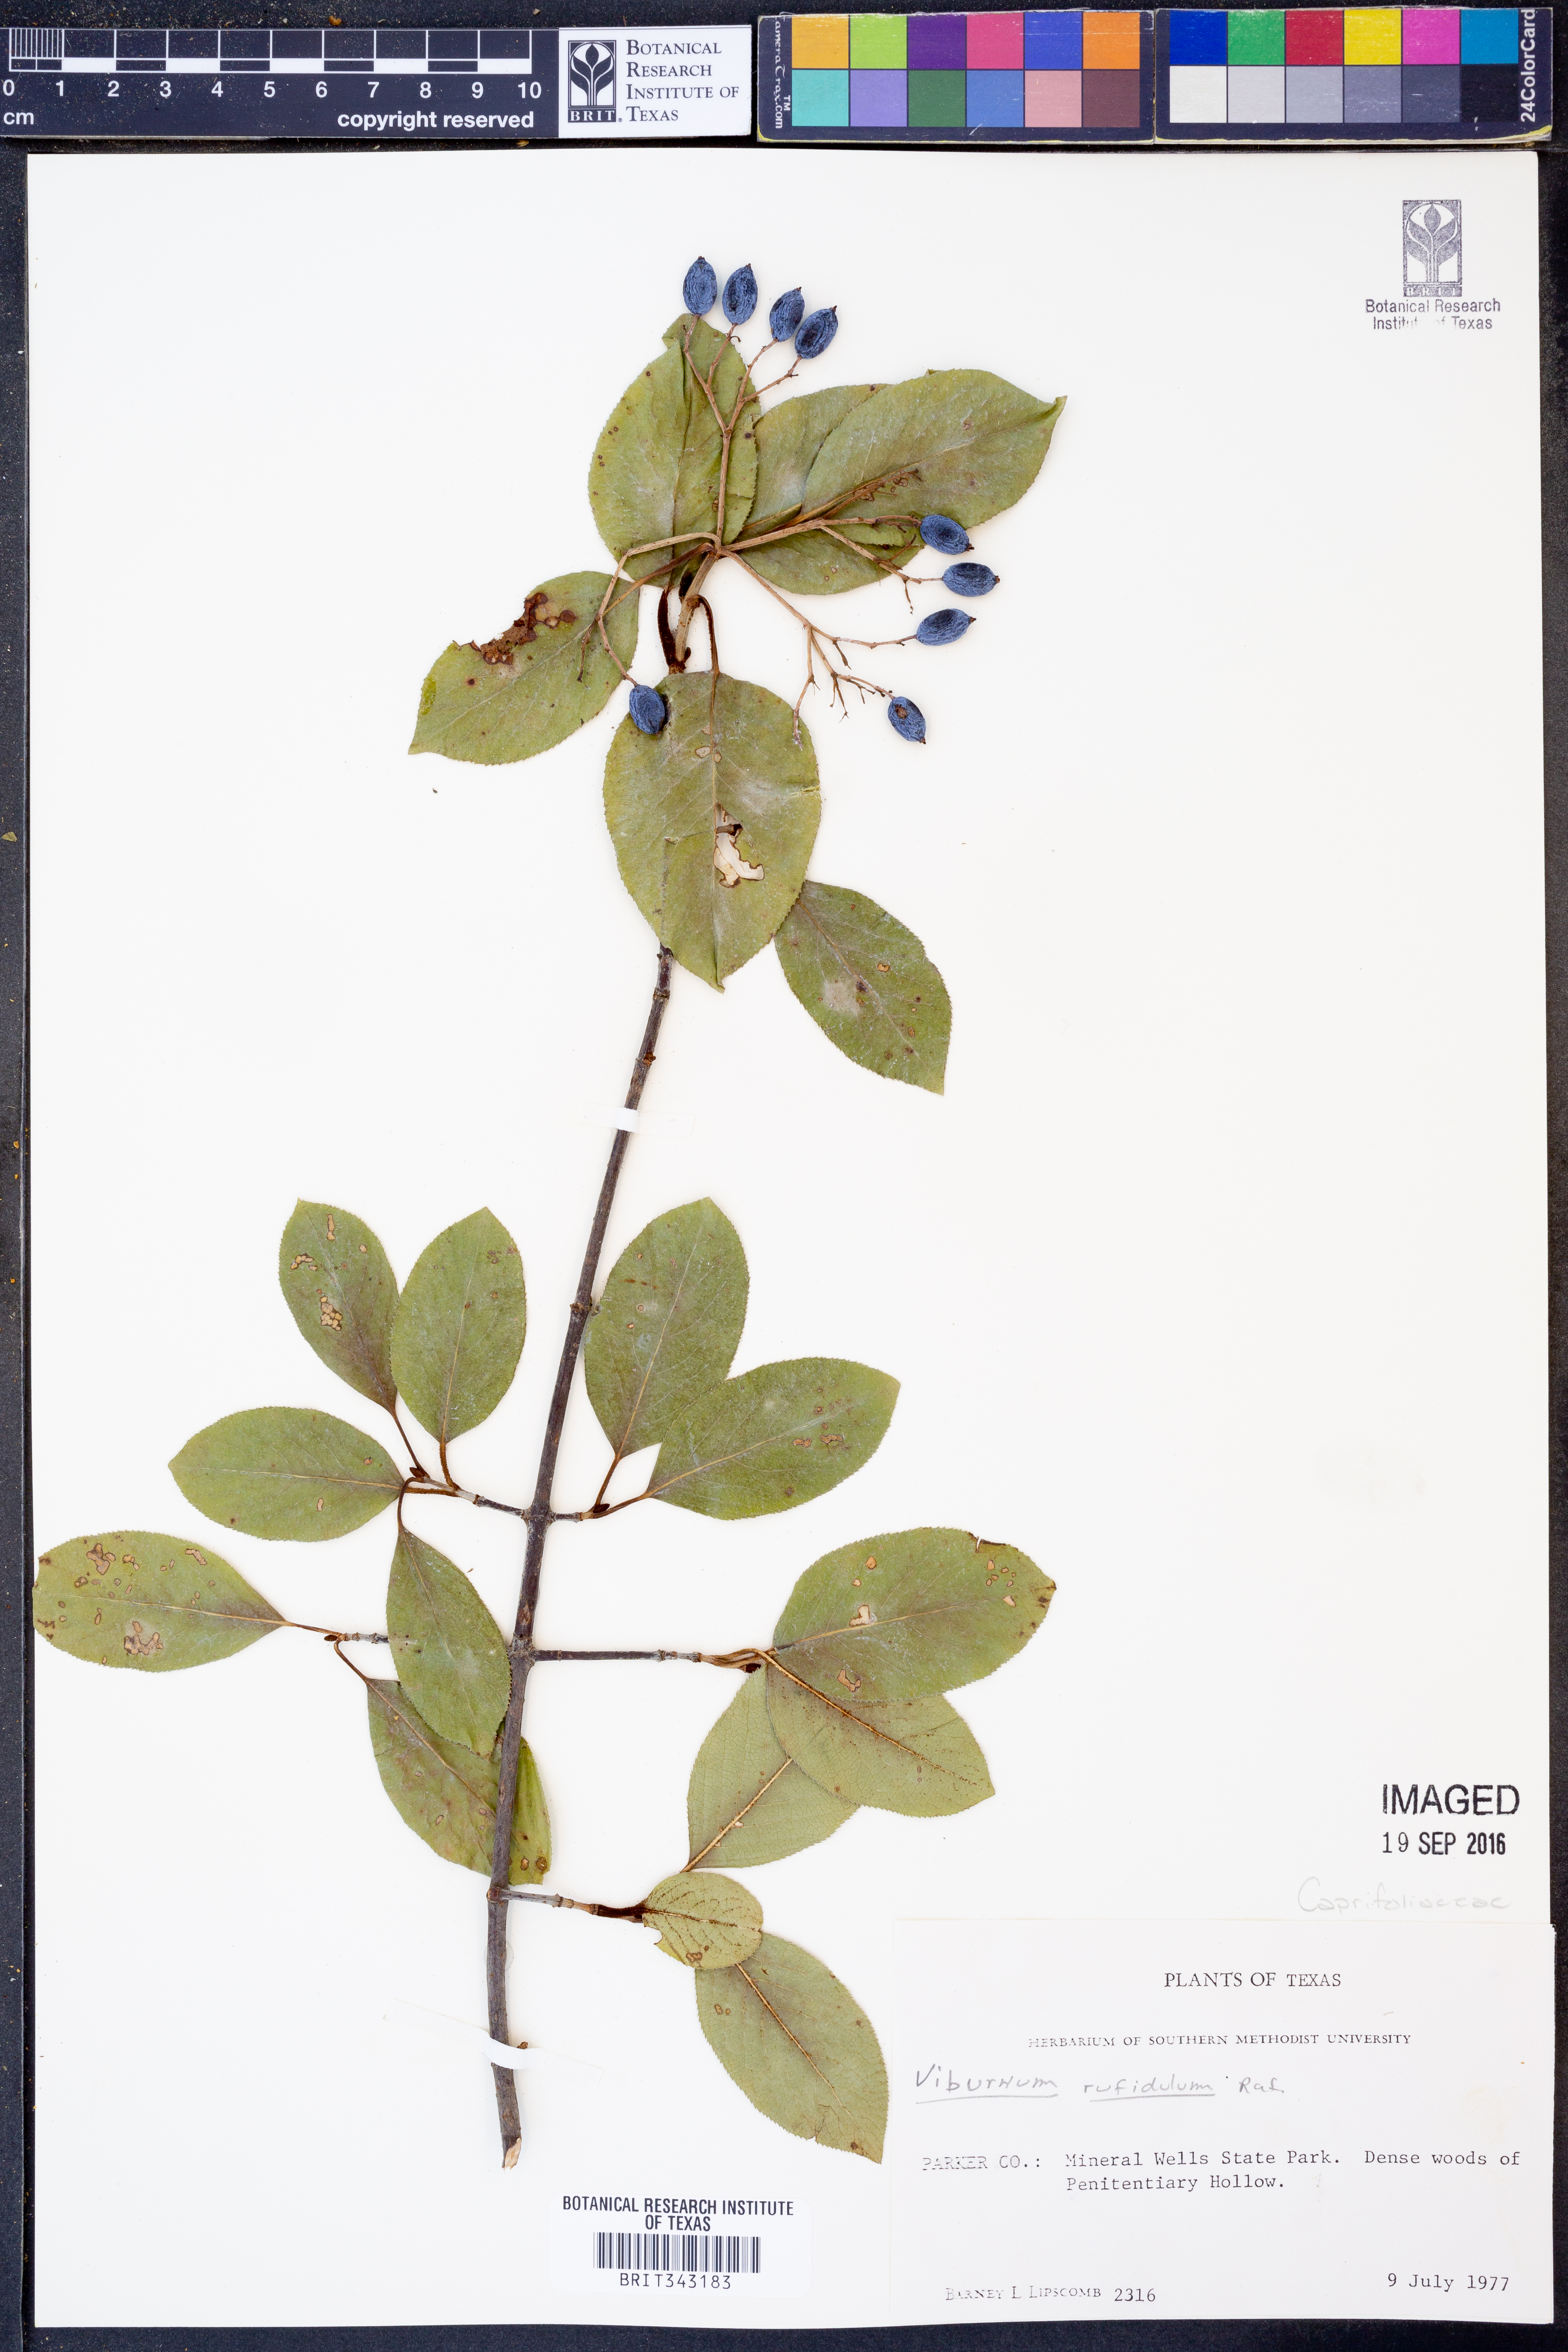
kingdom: Plantae
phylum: Tracheophyta
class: Magnoliopsida
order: Dipsacales
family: Viburnaceae
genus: Viburnum
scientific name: Viburnum rufidulum
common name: Blue haw
